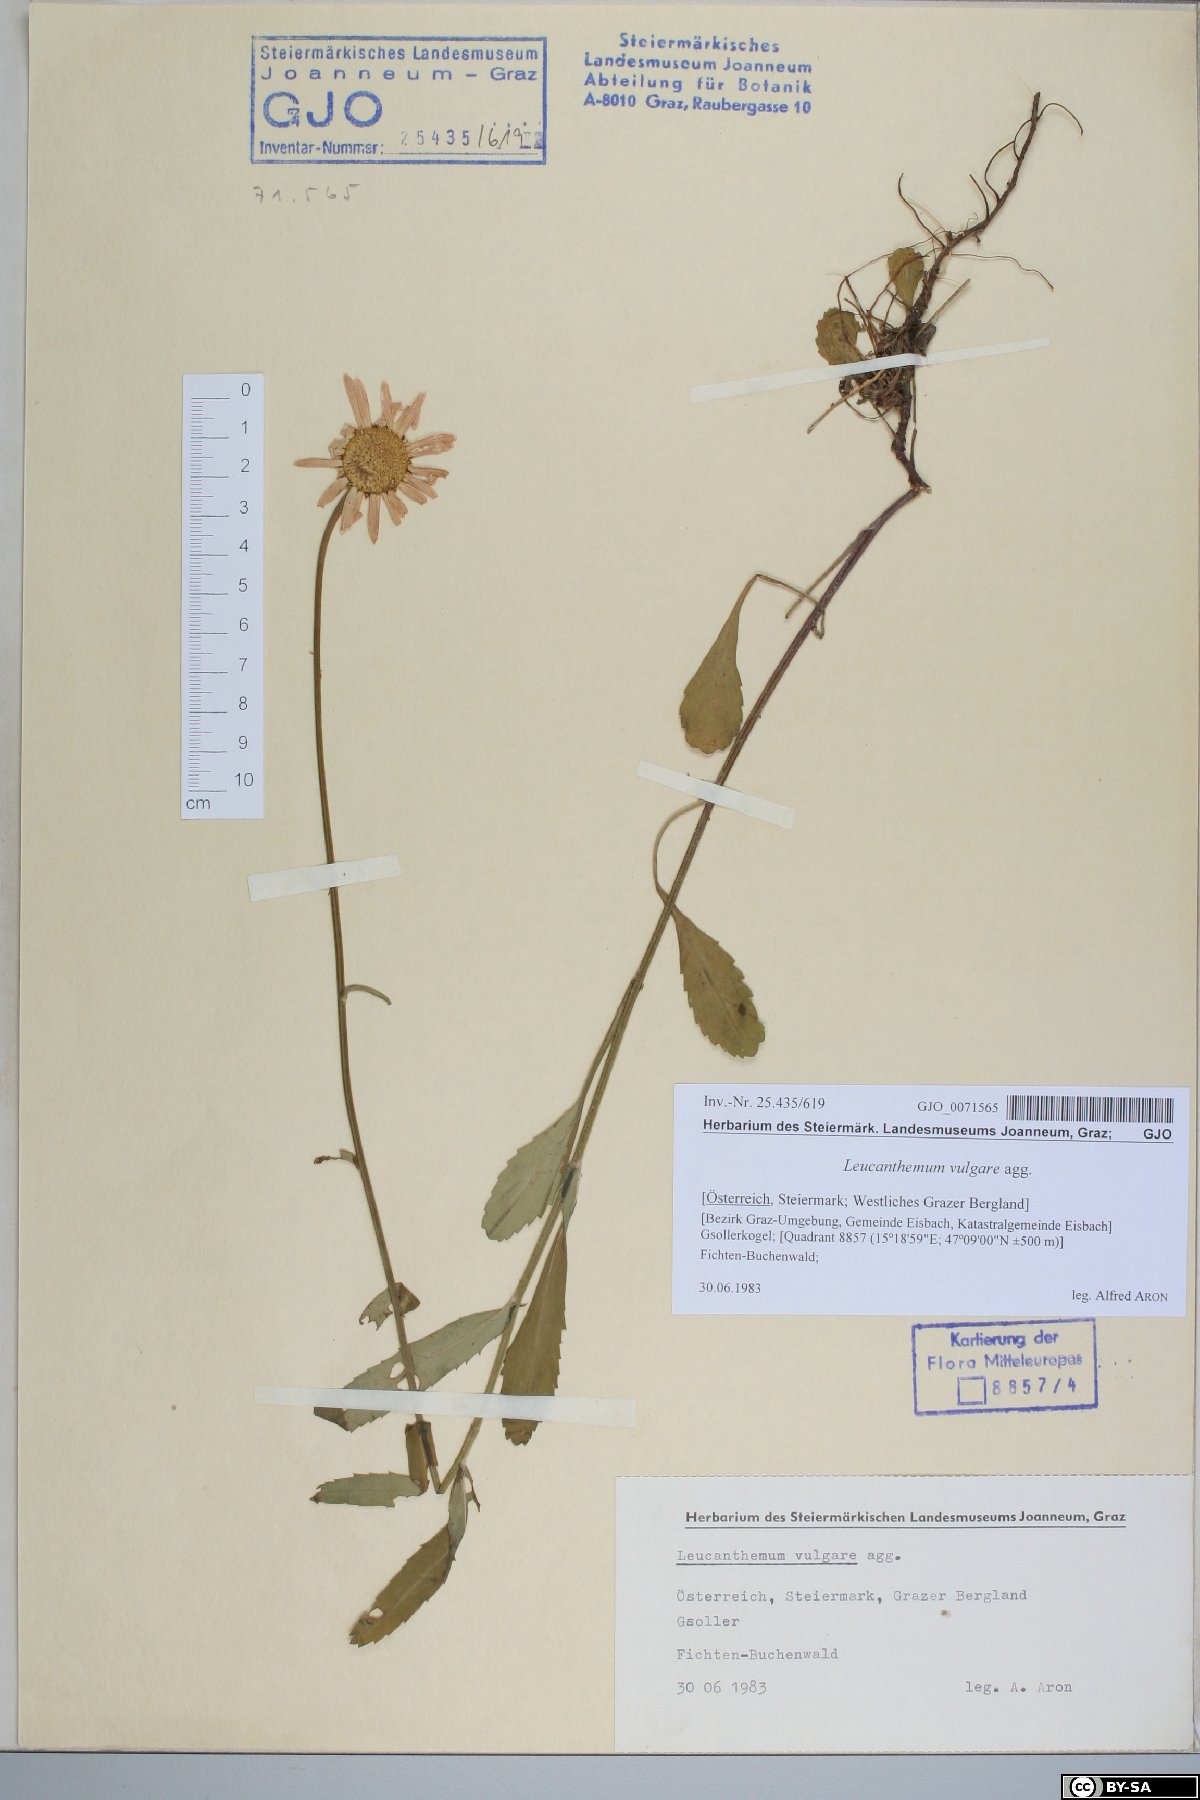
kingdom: Plantae
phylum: Tracheophyta
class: Magnoliopsida
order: Asterales
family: Asteraceae
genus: Leucanthemum
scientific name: Leucanthemum vulgare
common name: Oxeye daisy
